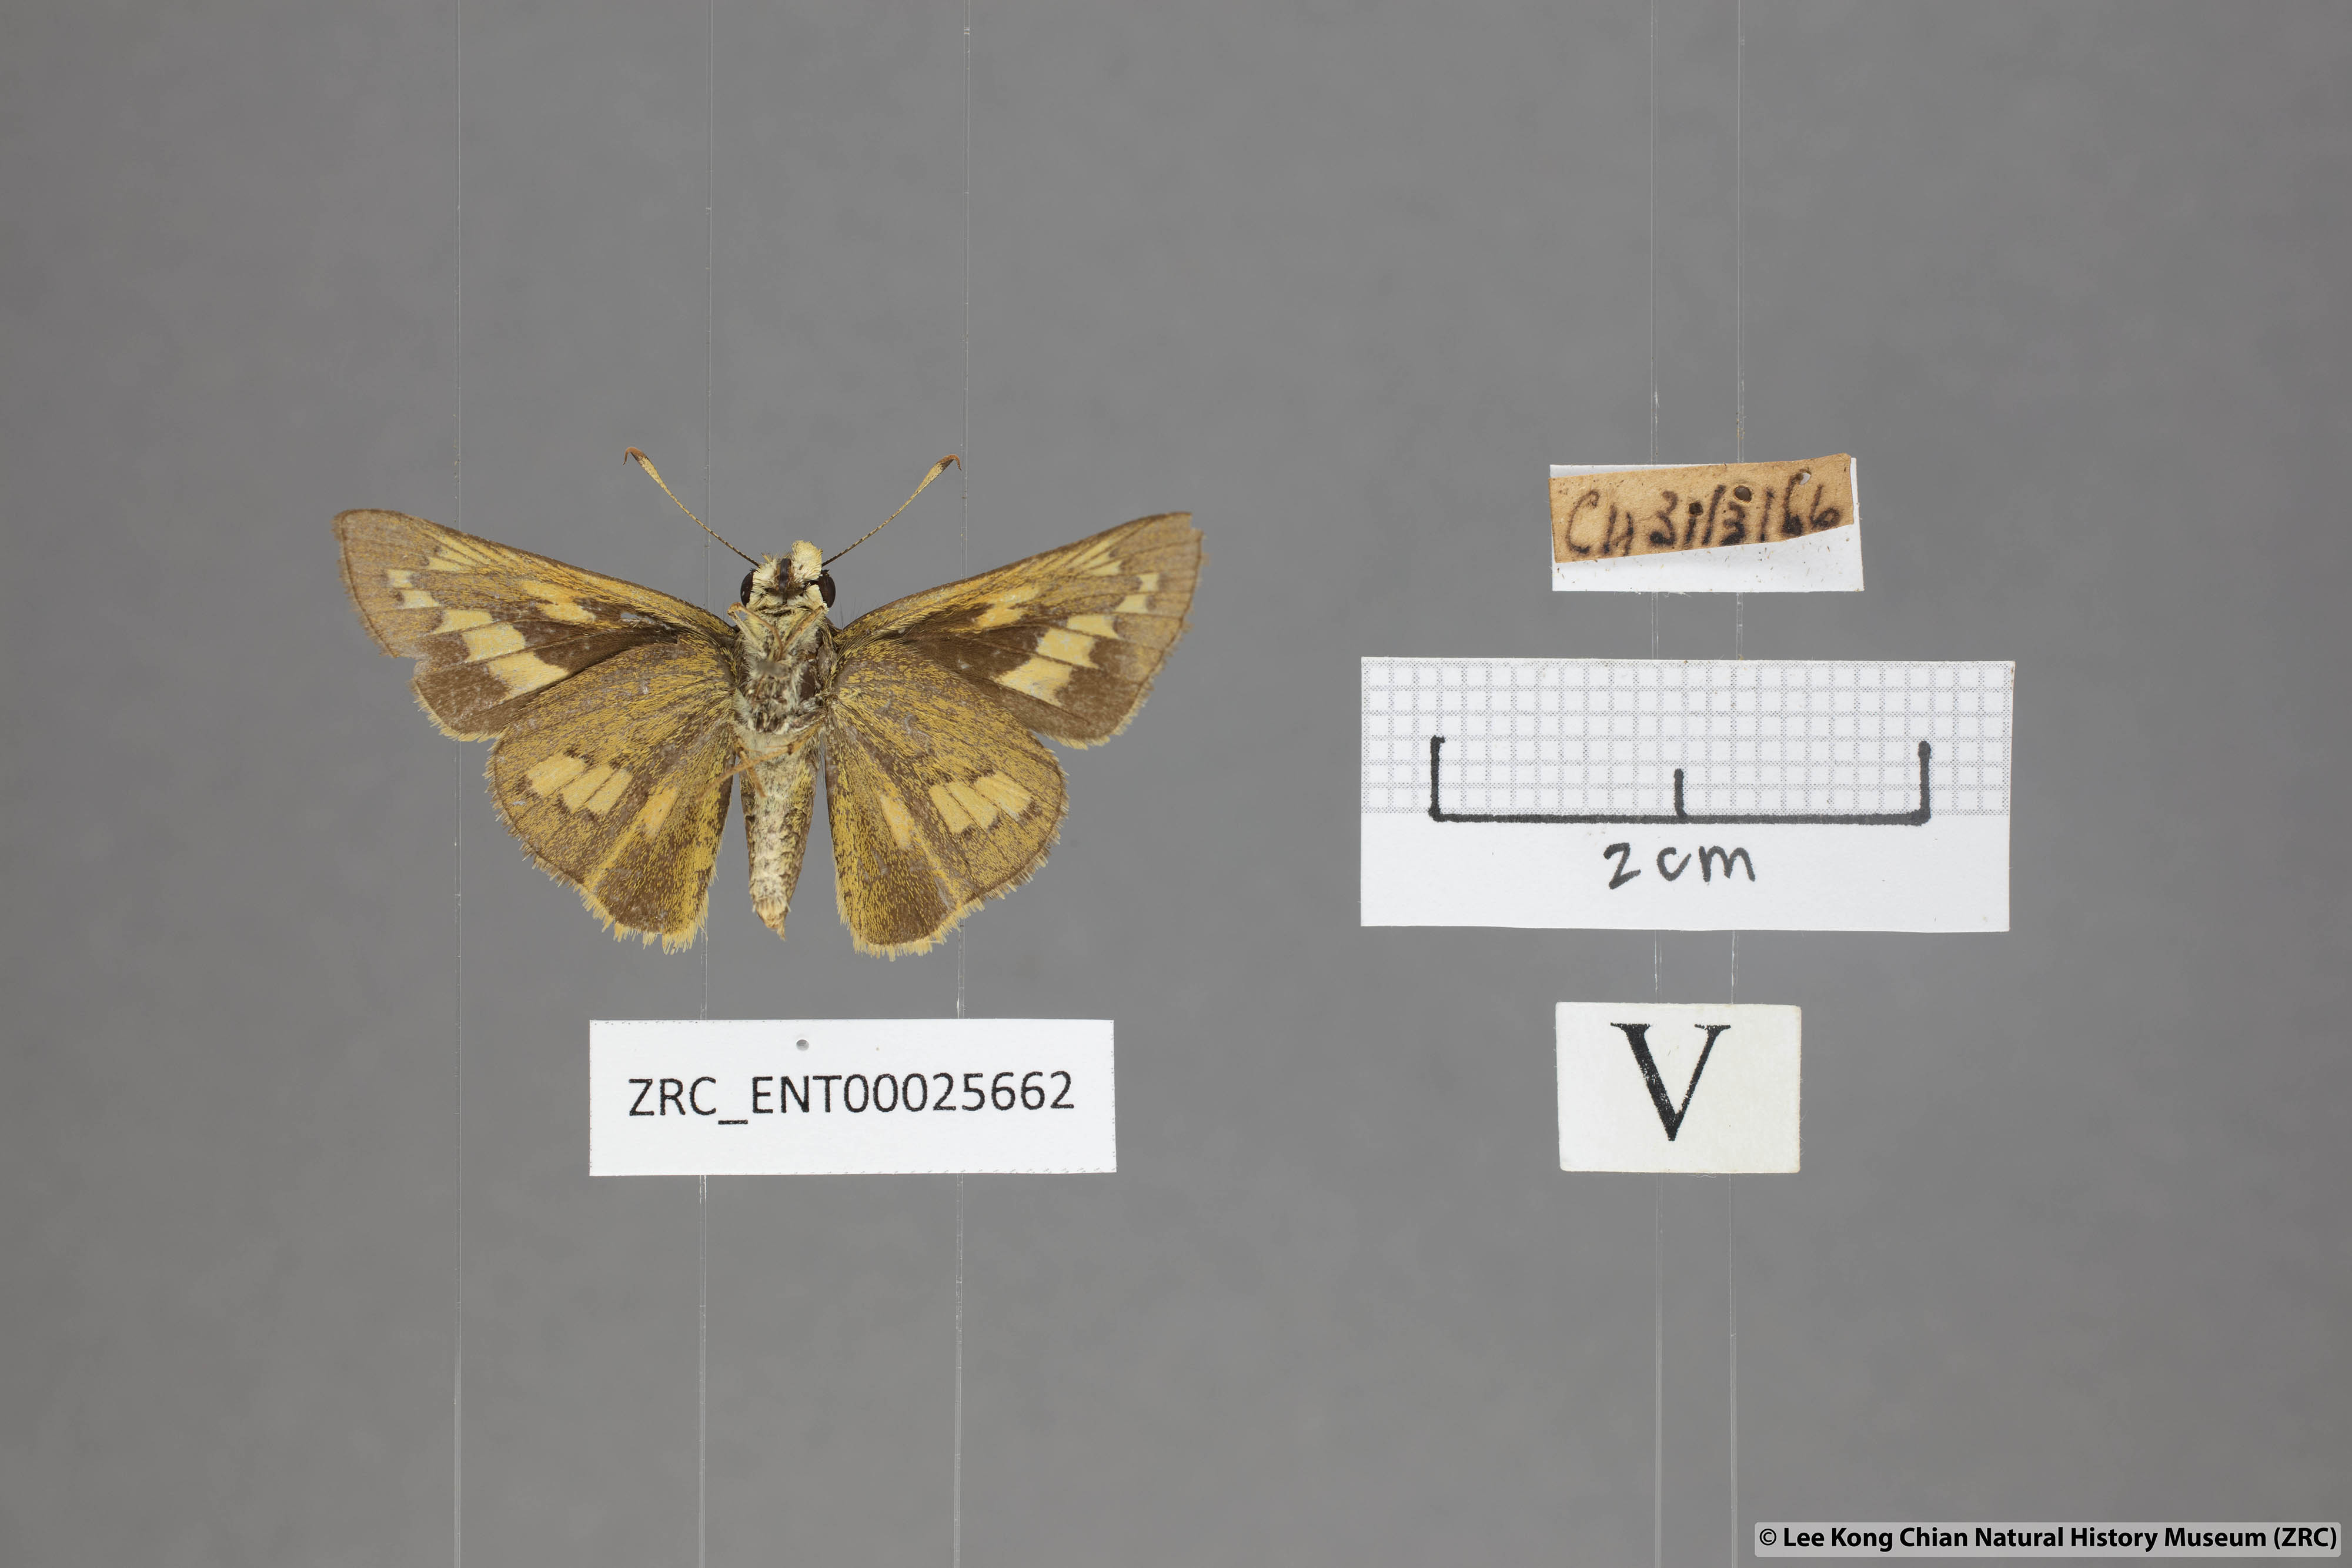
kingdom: Animalia
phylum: Arthropoda
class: Insecta
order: Lepidoptera
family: Hesperiidae
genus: Telicota
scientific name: Telicota colon
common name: Pale palm dart
